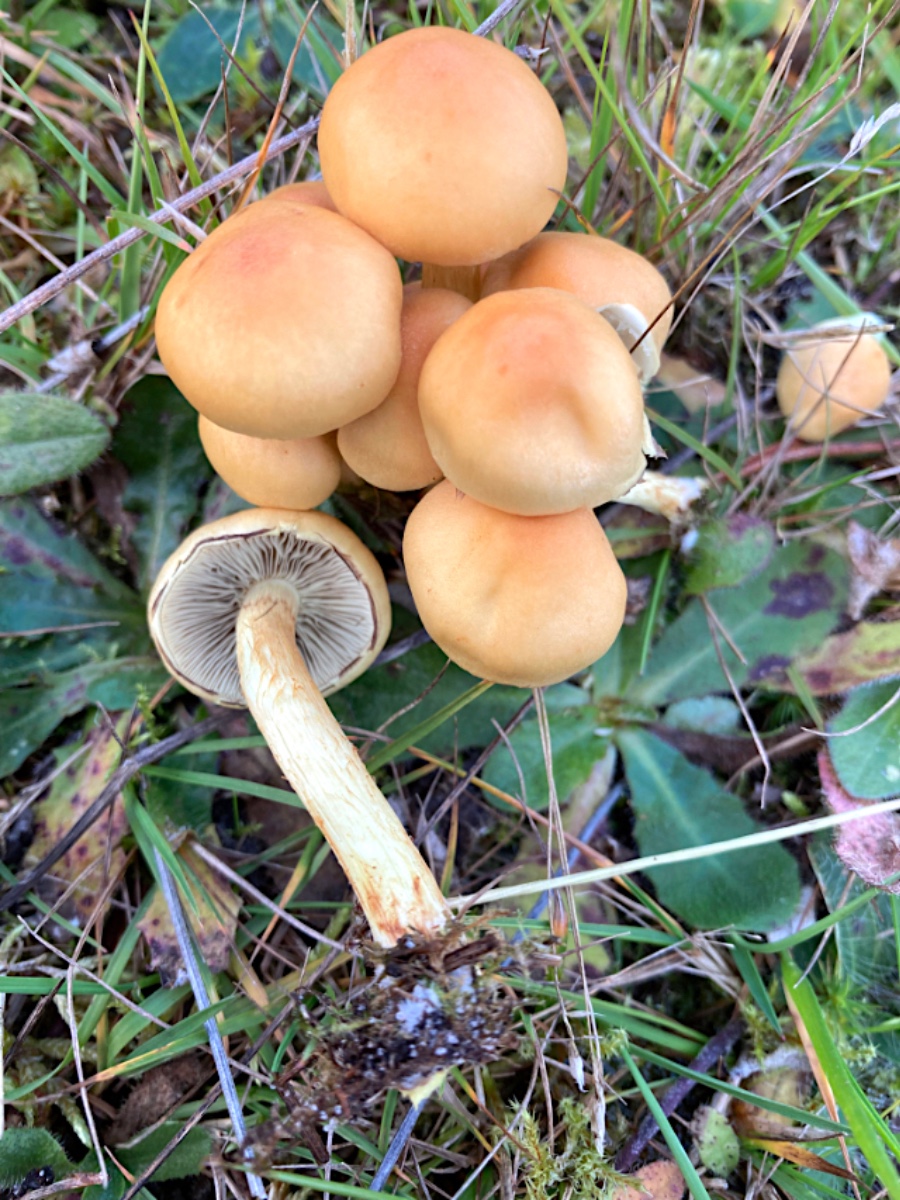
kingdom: Fungi
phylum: Basidiomycota
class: Agaricomycetes
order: Agaricales
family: Strophariaceae
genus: Hypholoma
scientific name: Hypholoma capnoides
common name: gran-svovlhat
